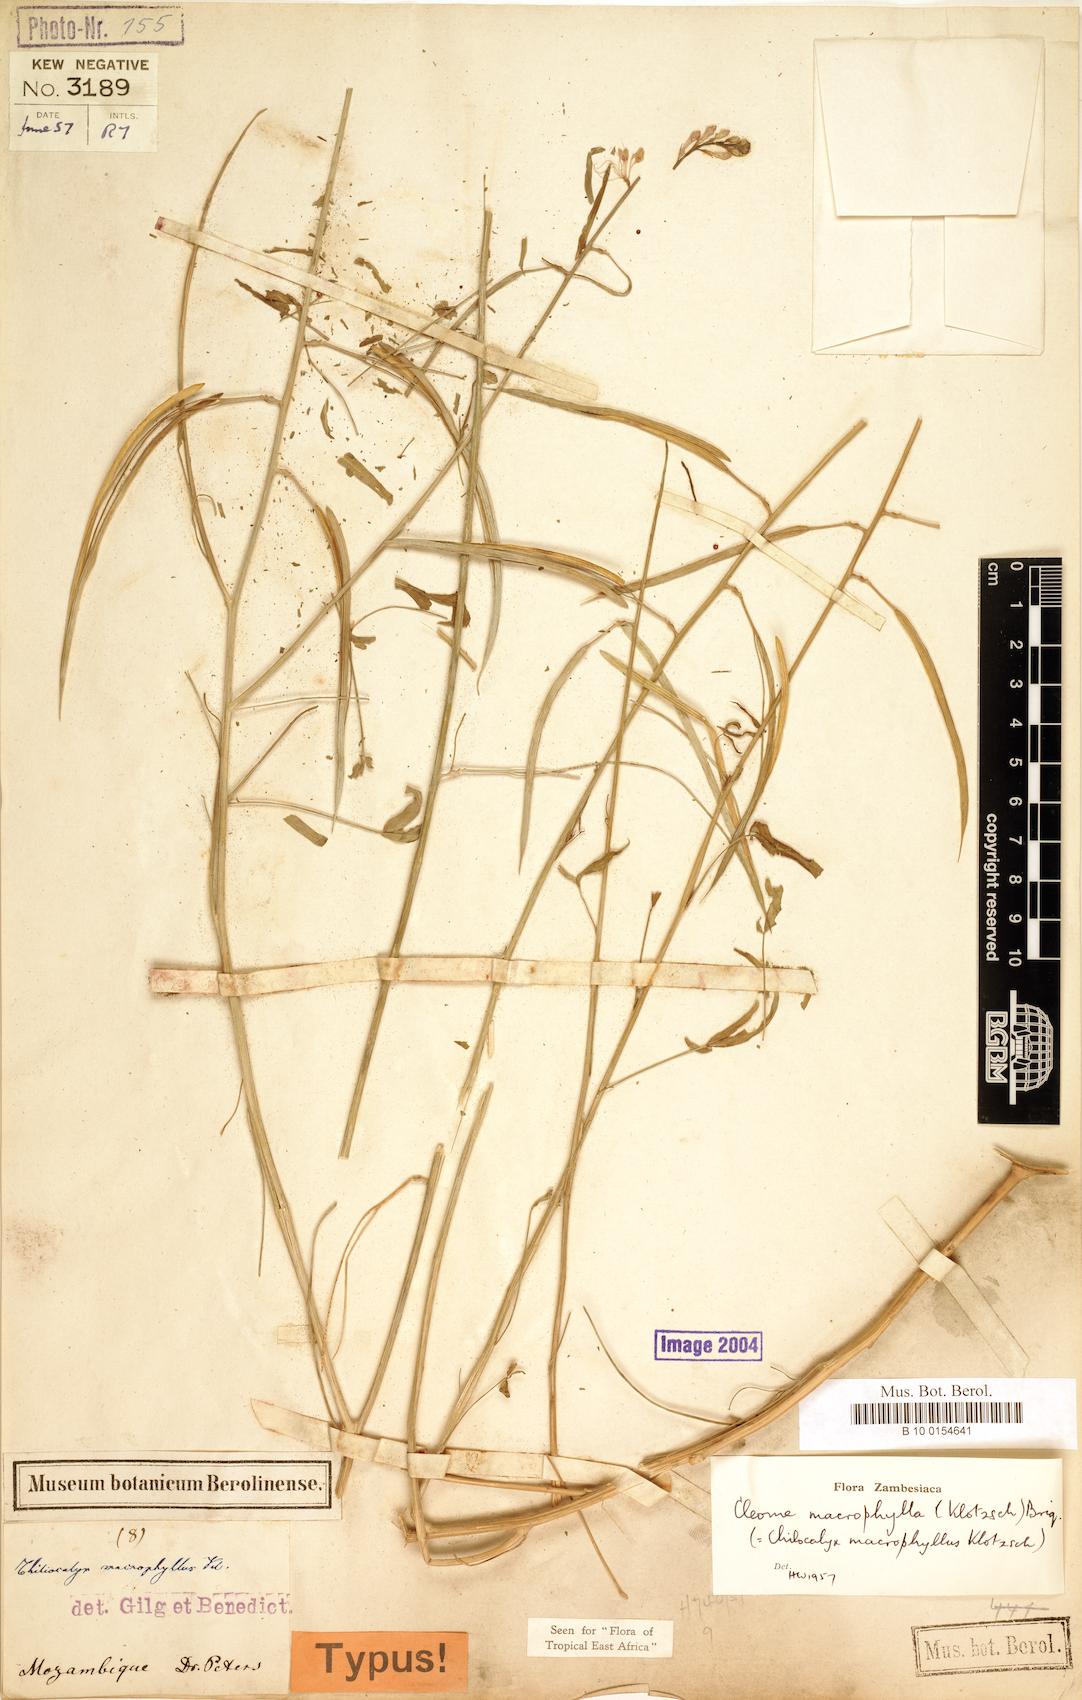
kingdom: Plantae
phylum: Tracheophyta
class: Magnoliopsida
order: Brassicales
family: Cleomaceae
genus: Sieruela
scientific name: Sieruela macrophylla
